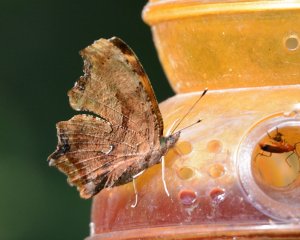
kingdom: Animalia
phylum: Arthropoda
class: Insecta
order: Lepidoptera
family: Nymphalidae
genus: Polygonia
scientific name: Polygonia comma
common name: Eastern Comma
